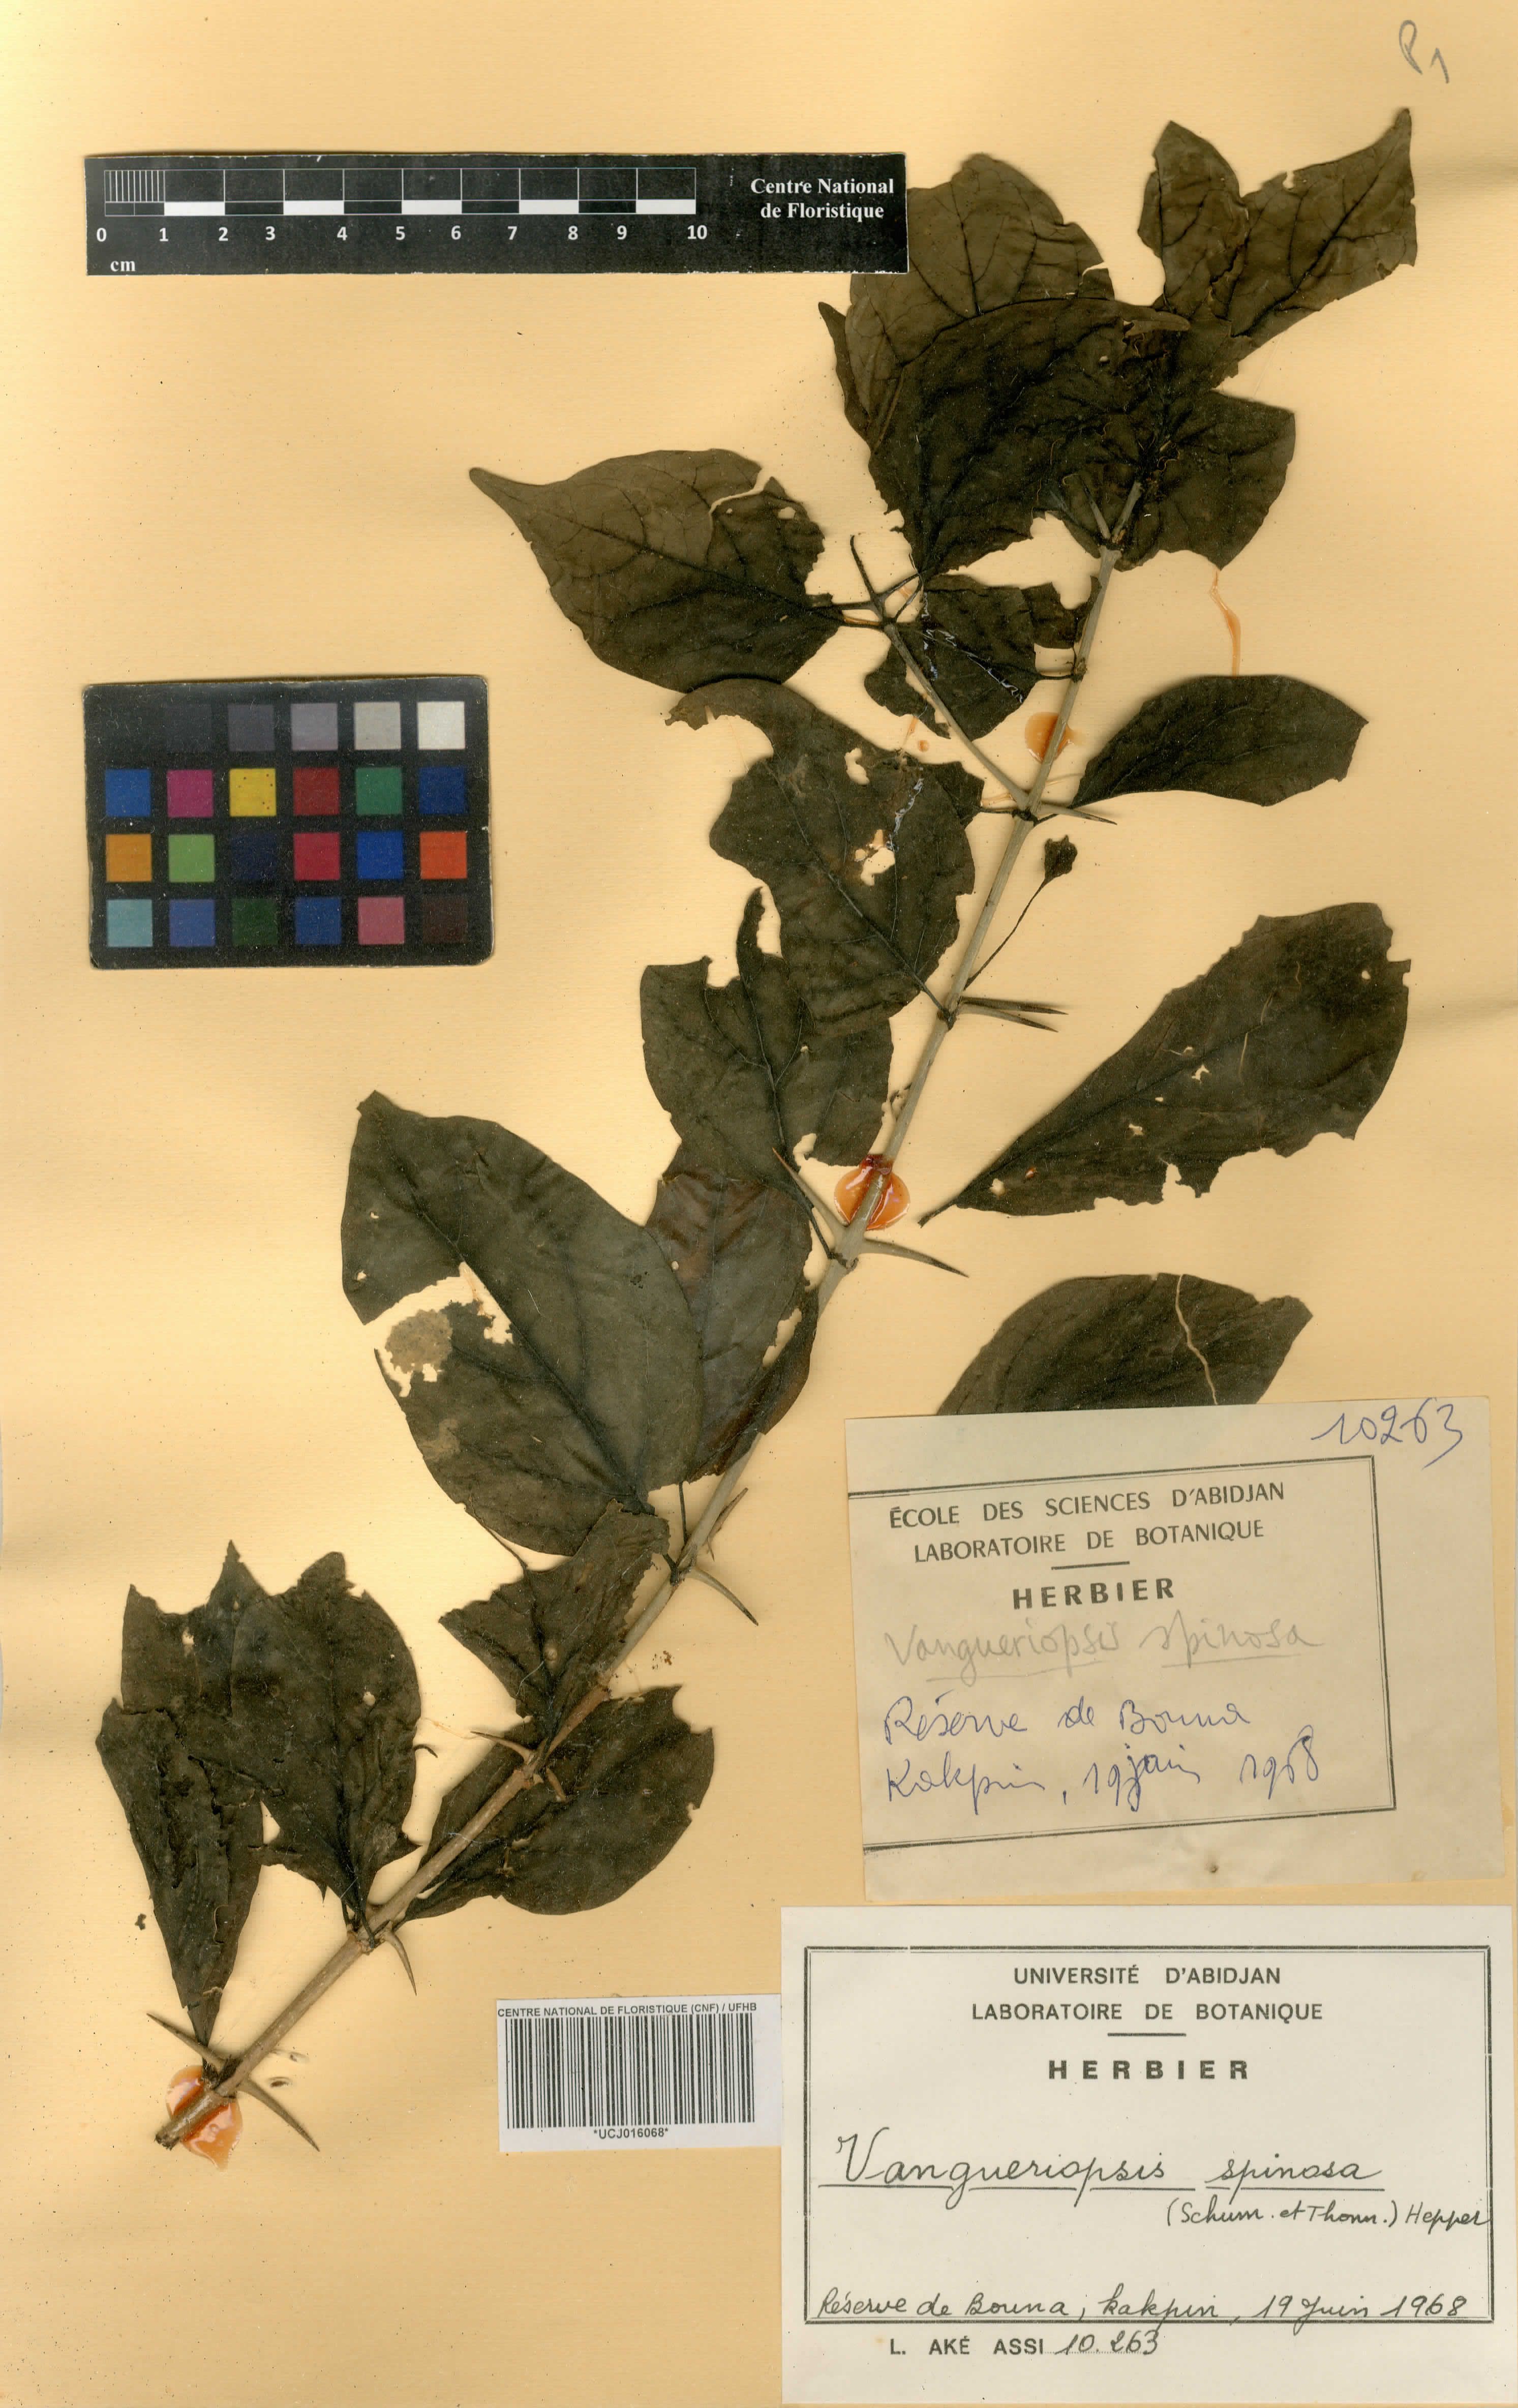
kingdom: Plantae
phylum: Tracheophyta
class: Magnoliopsida
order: Gentianales
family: Rubiaceae
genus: Vangueriella
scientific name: Vangueriella spinosa
